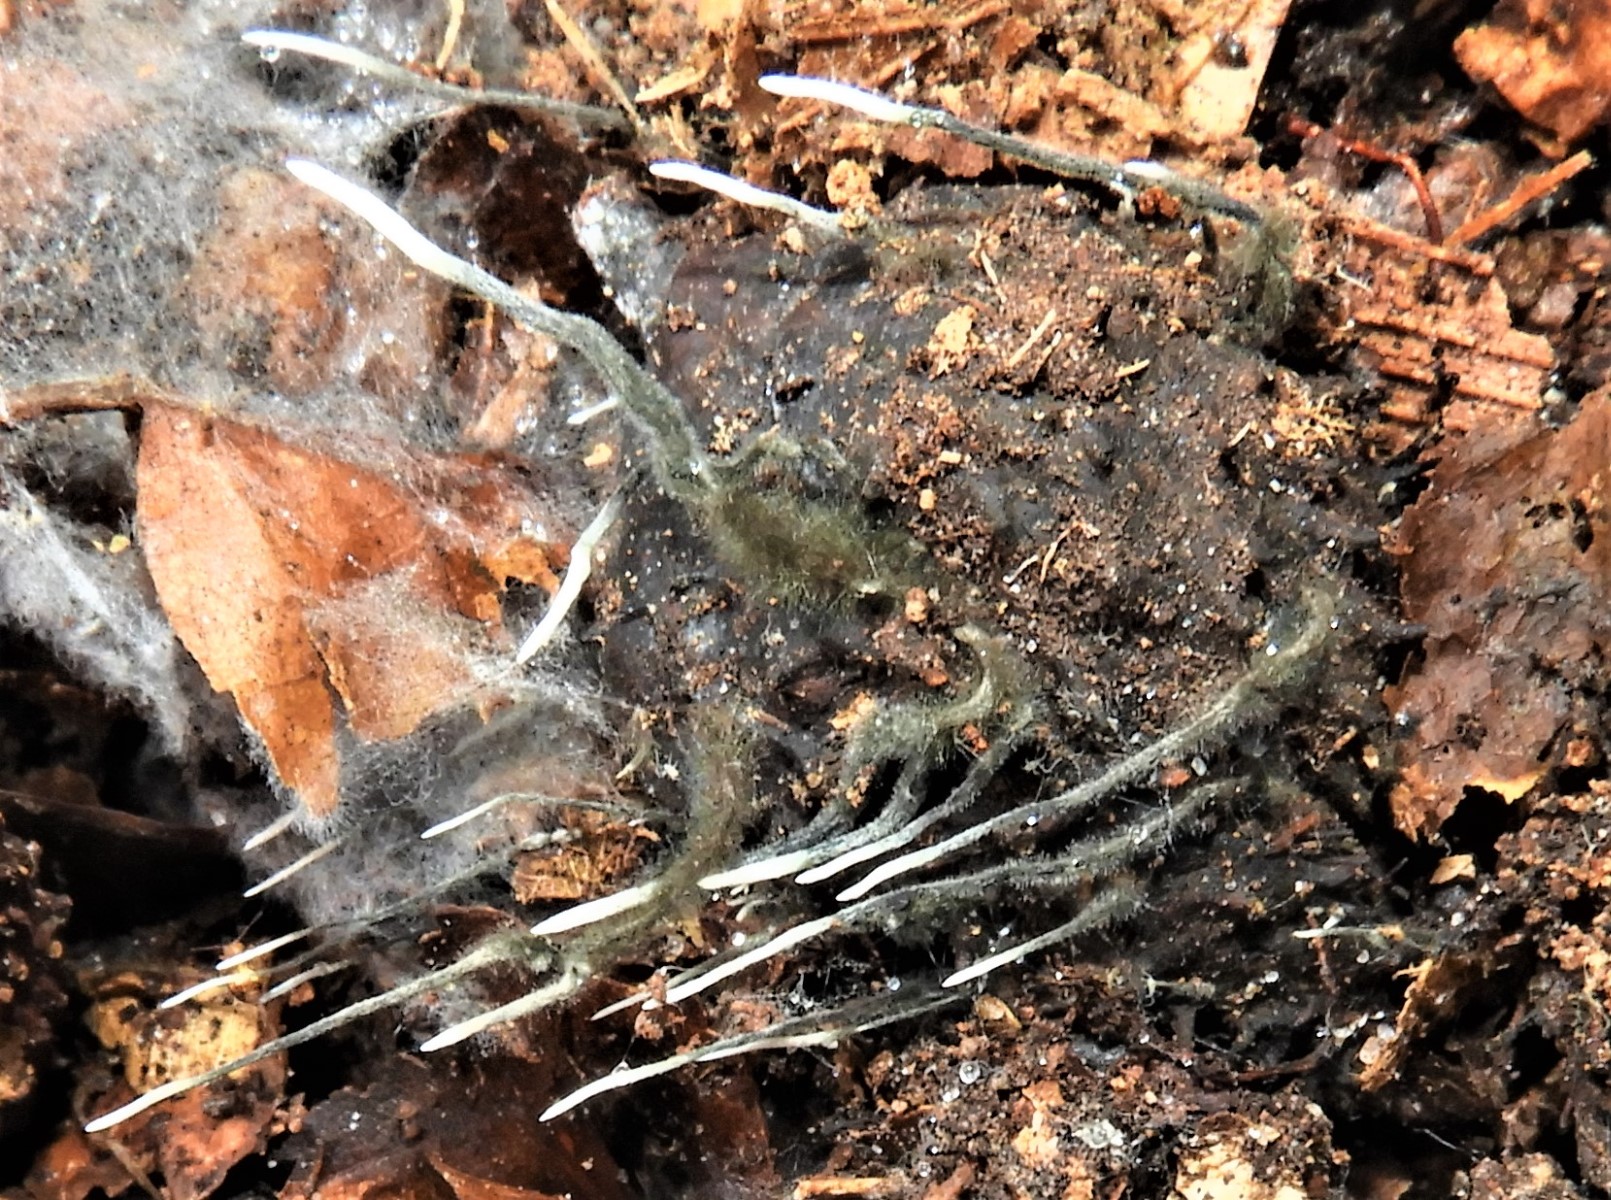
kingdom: Fungi
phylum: Ascomycota
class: Sordariomycetes
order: Xylariales
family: Xylariaceae
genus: Xylaria
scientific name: Xylaria carpophila
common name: bogskål-stødsvamp
